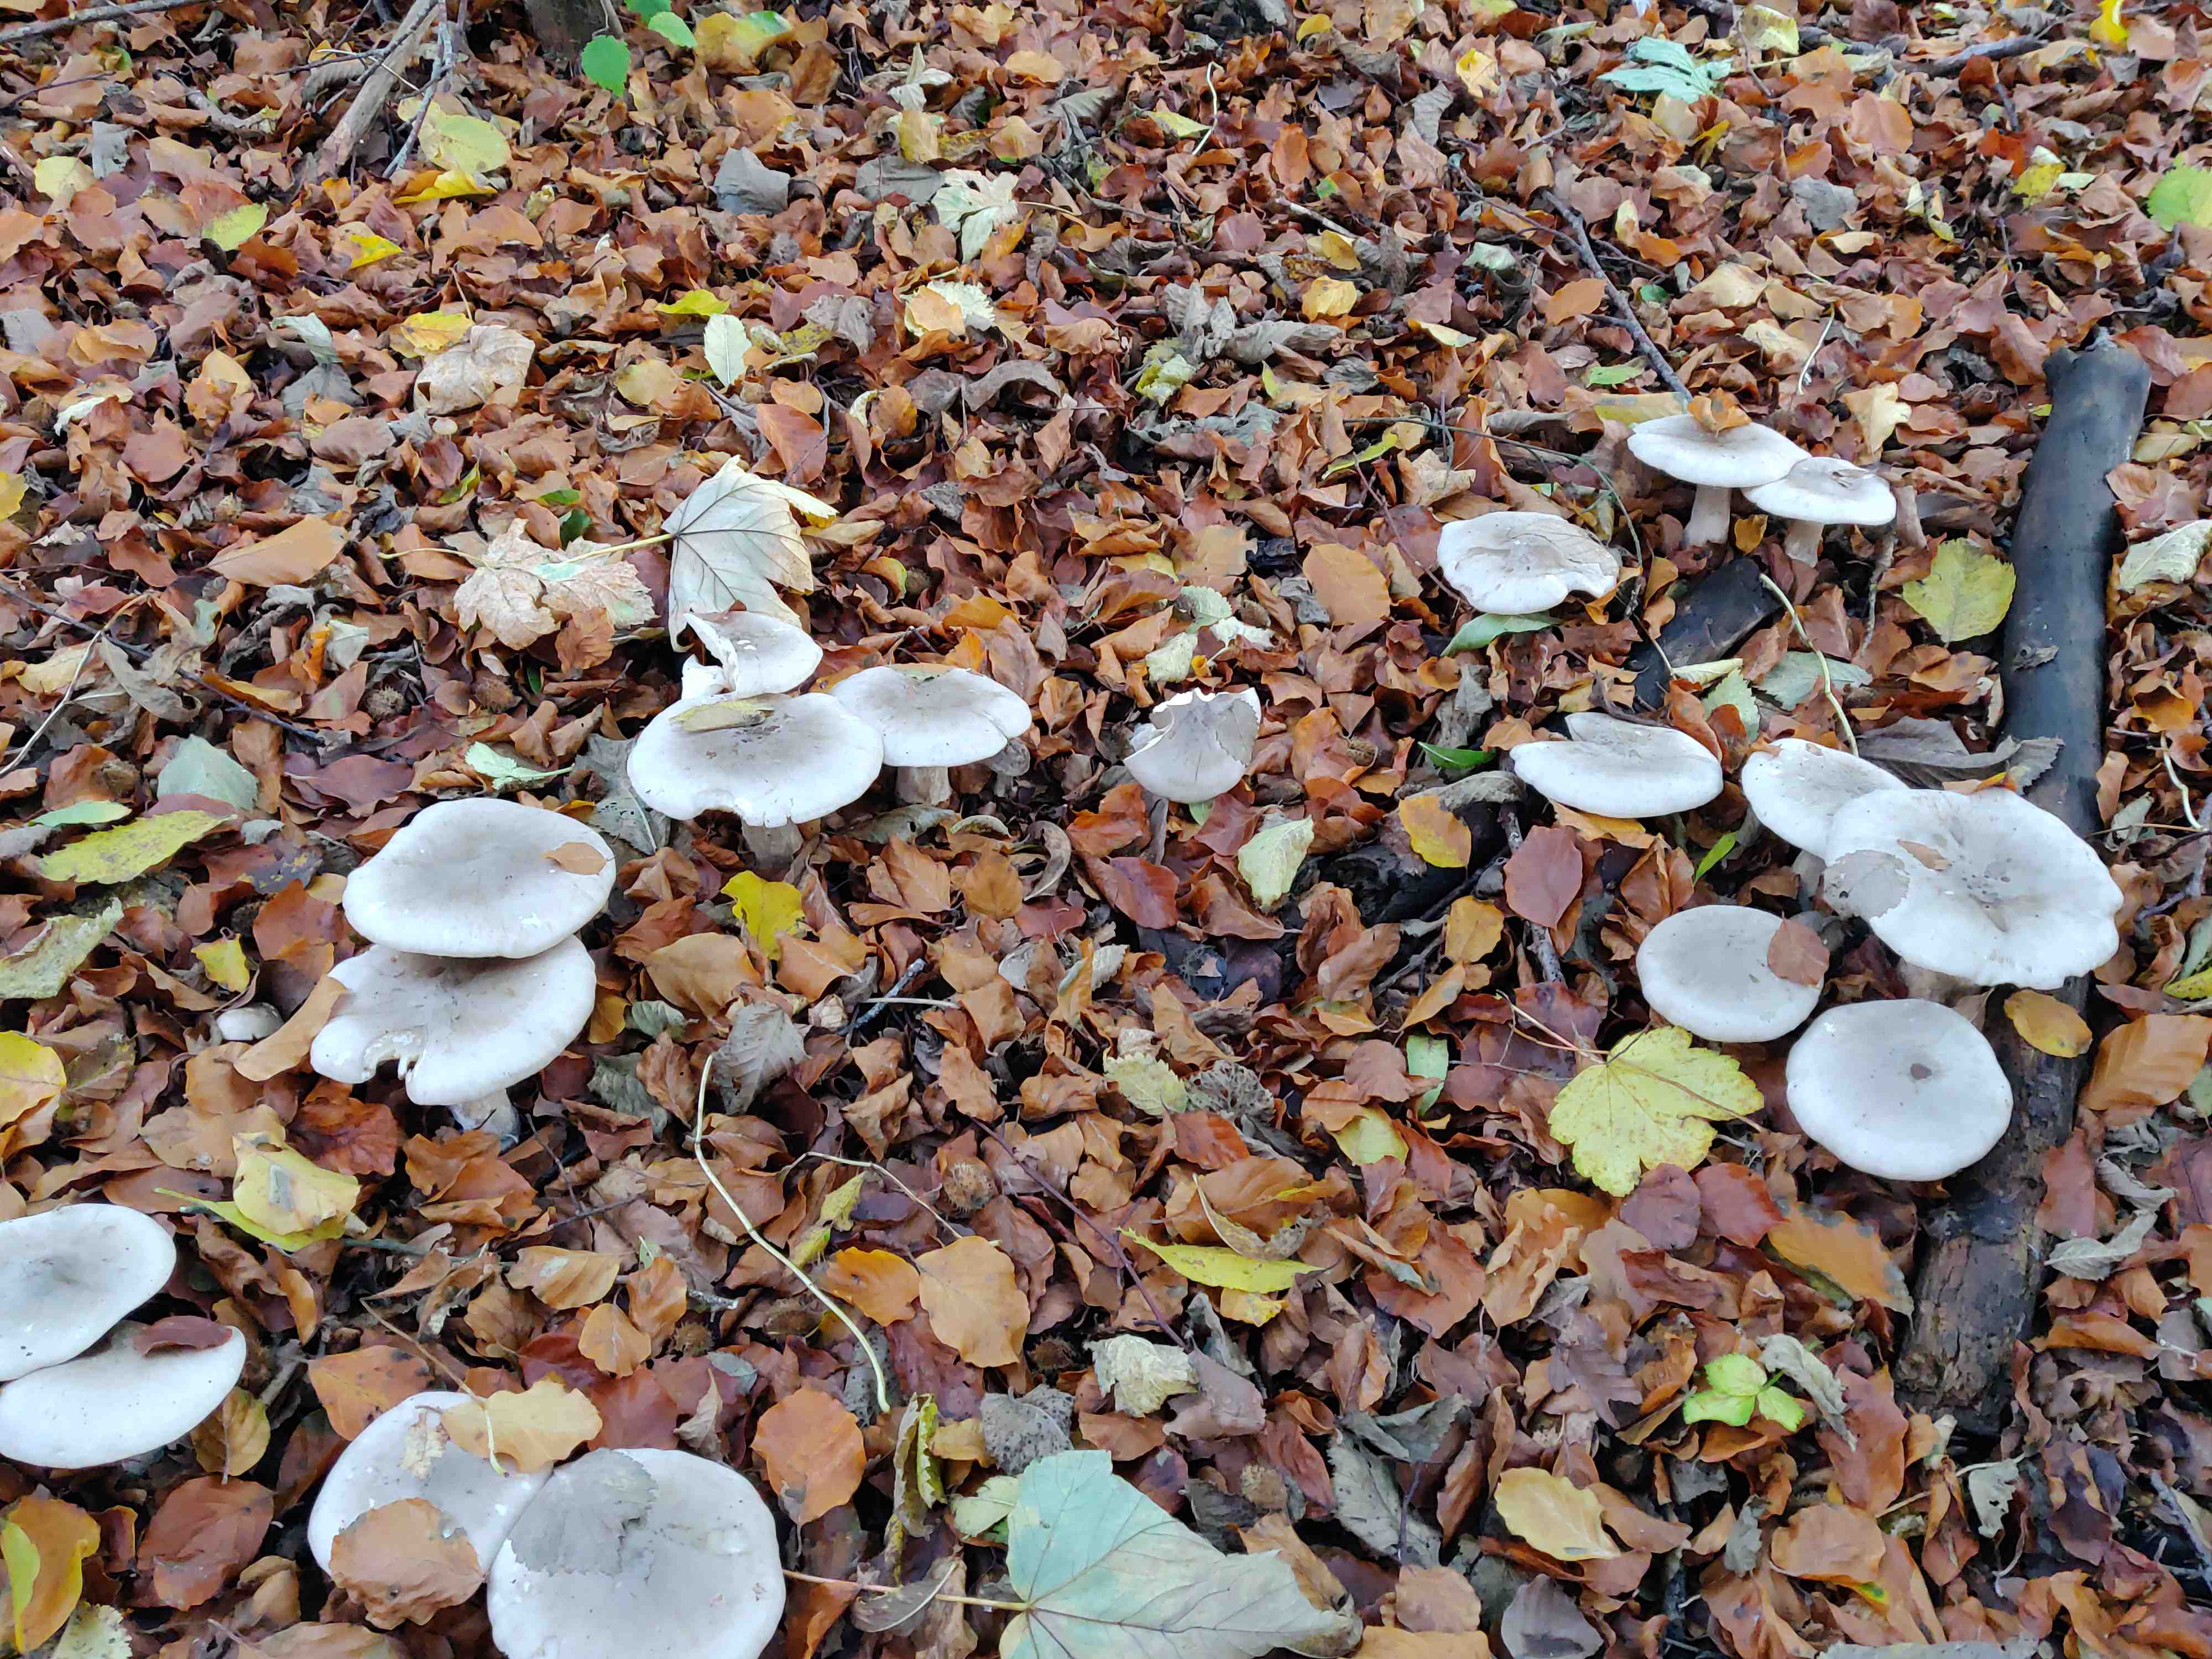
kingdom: Fungi
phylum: Basidiomycota
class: Agaricomycetes
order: Agaricales
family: Tricholomataceae
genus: Clitocybe
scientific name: Clitocybe nebularis
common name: tåge-tragthat
